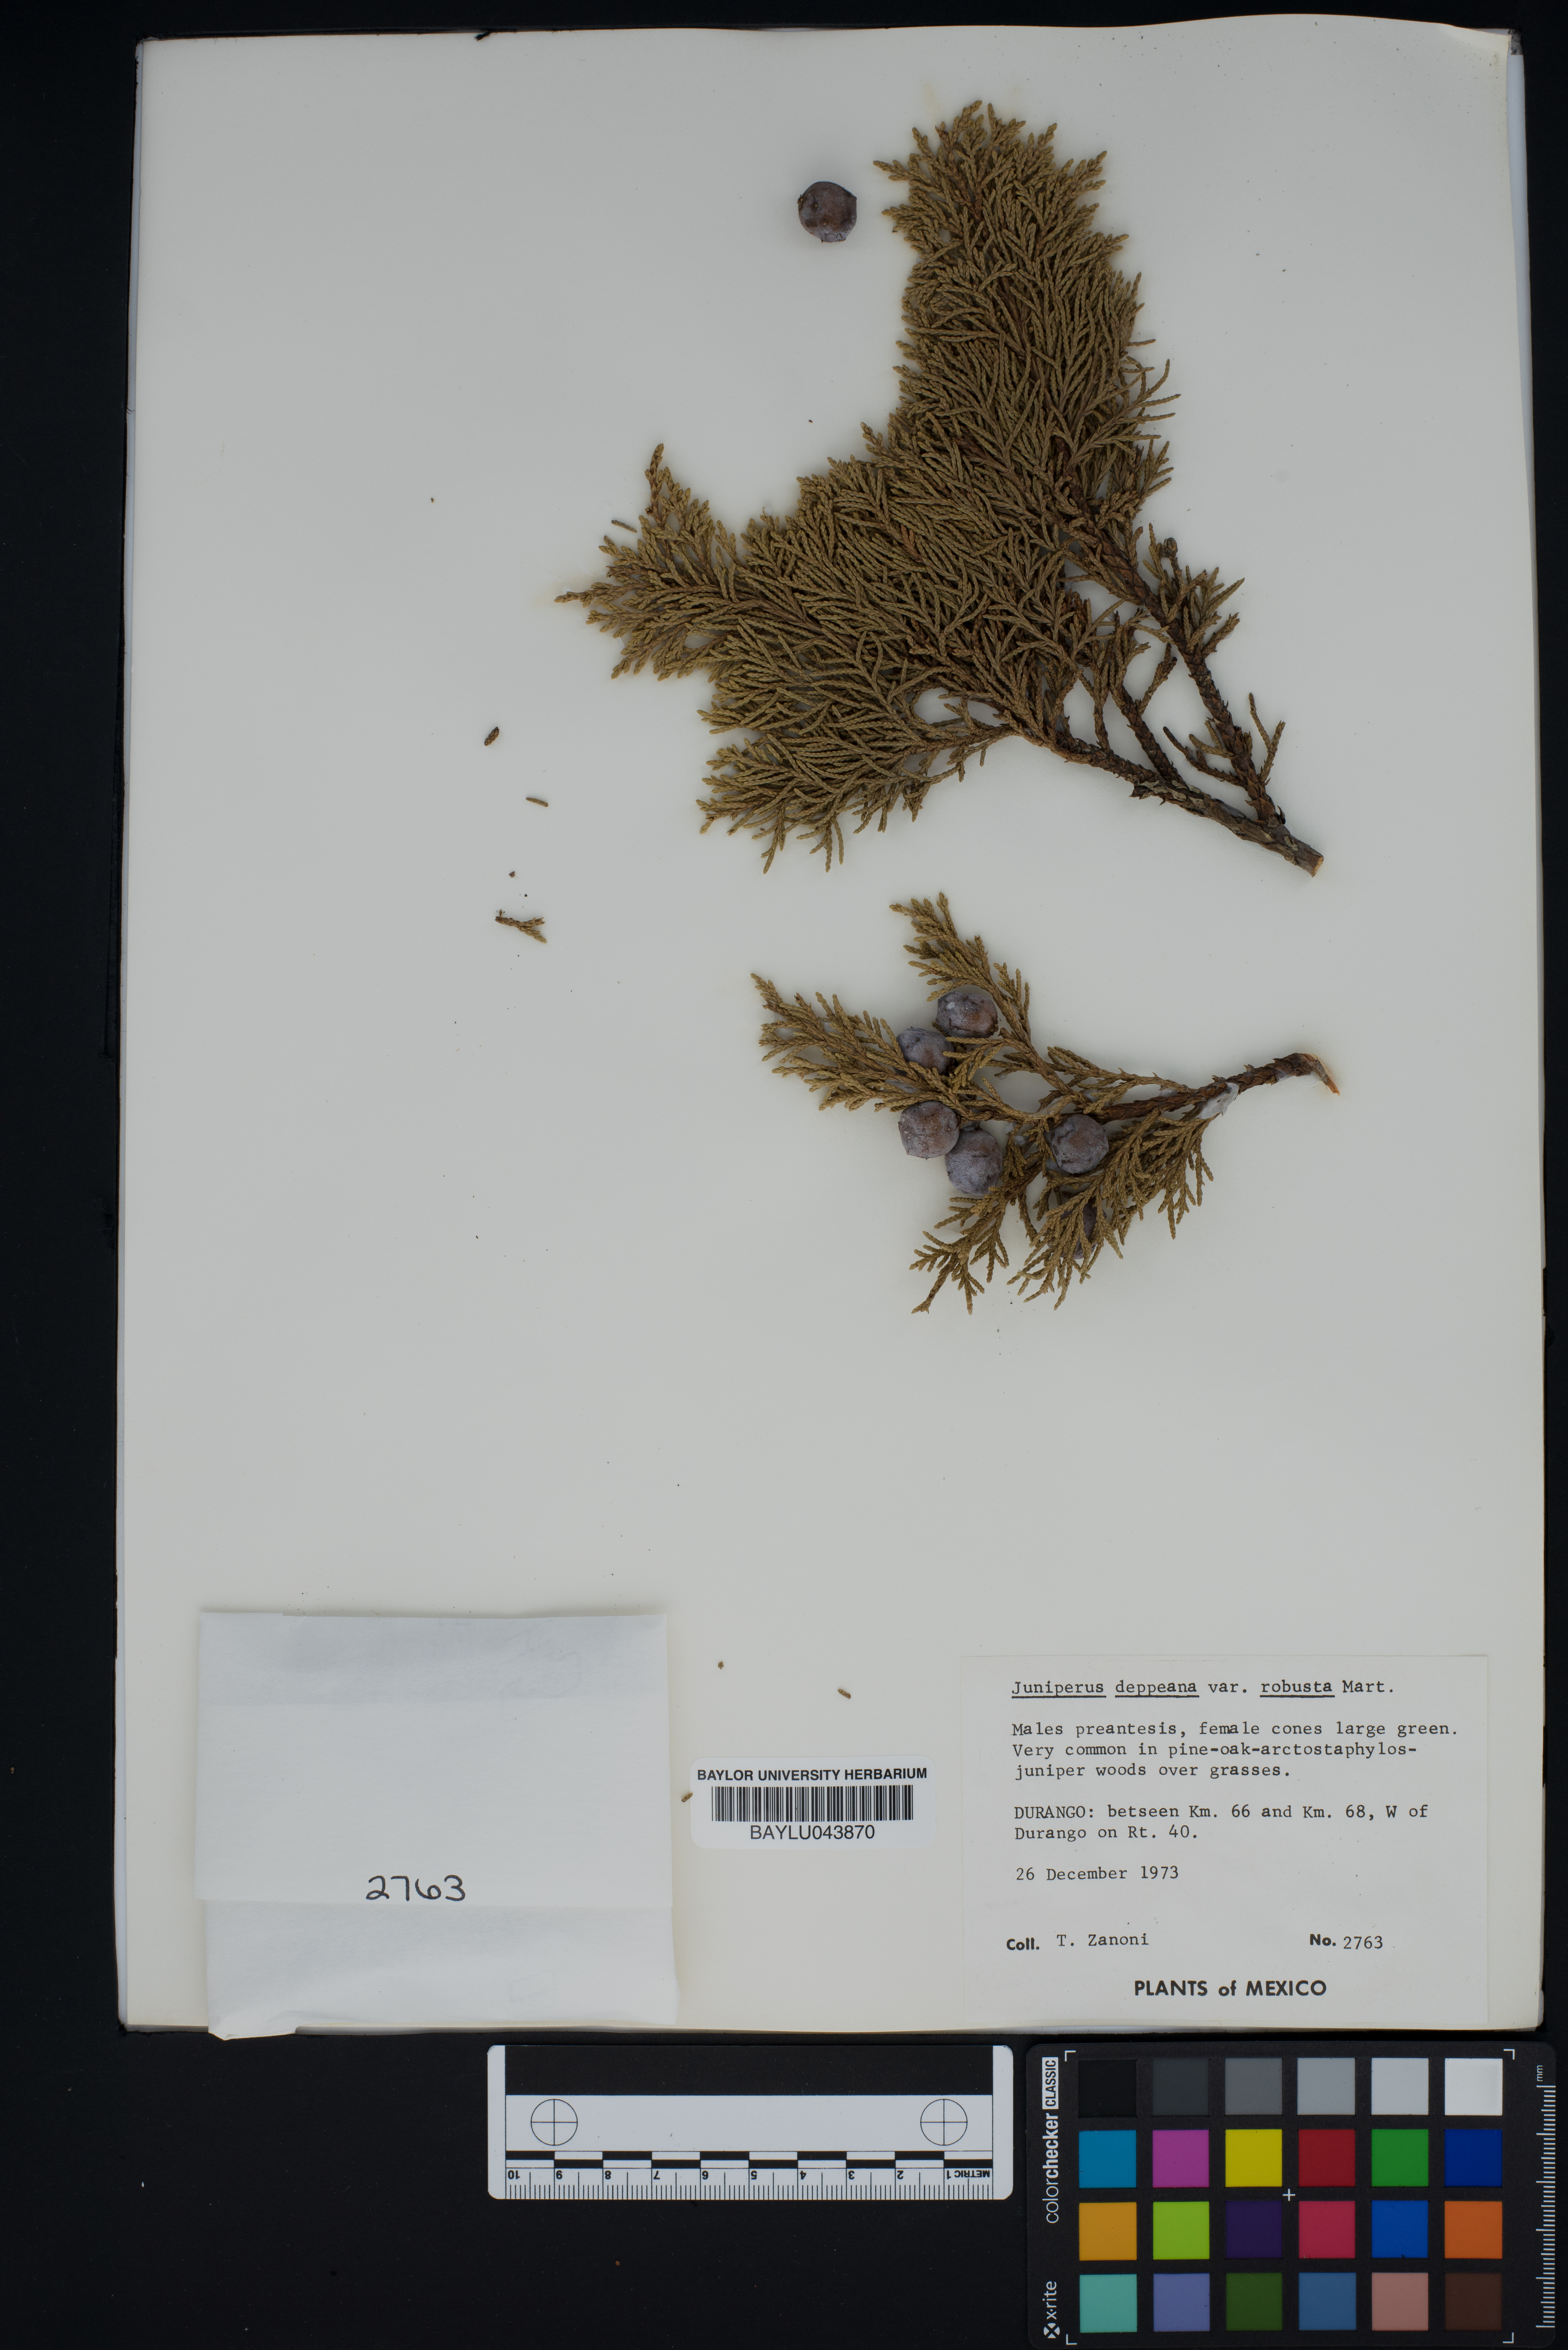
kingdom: Plantae
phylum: Tracheophyta
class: Pinopsida
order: Pinales
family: Cupressaceae
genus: Juniperus
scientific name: Juniperus deppeana
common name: Alligator juniper
